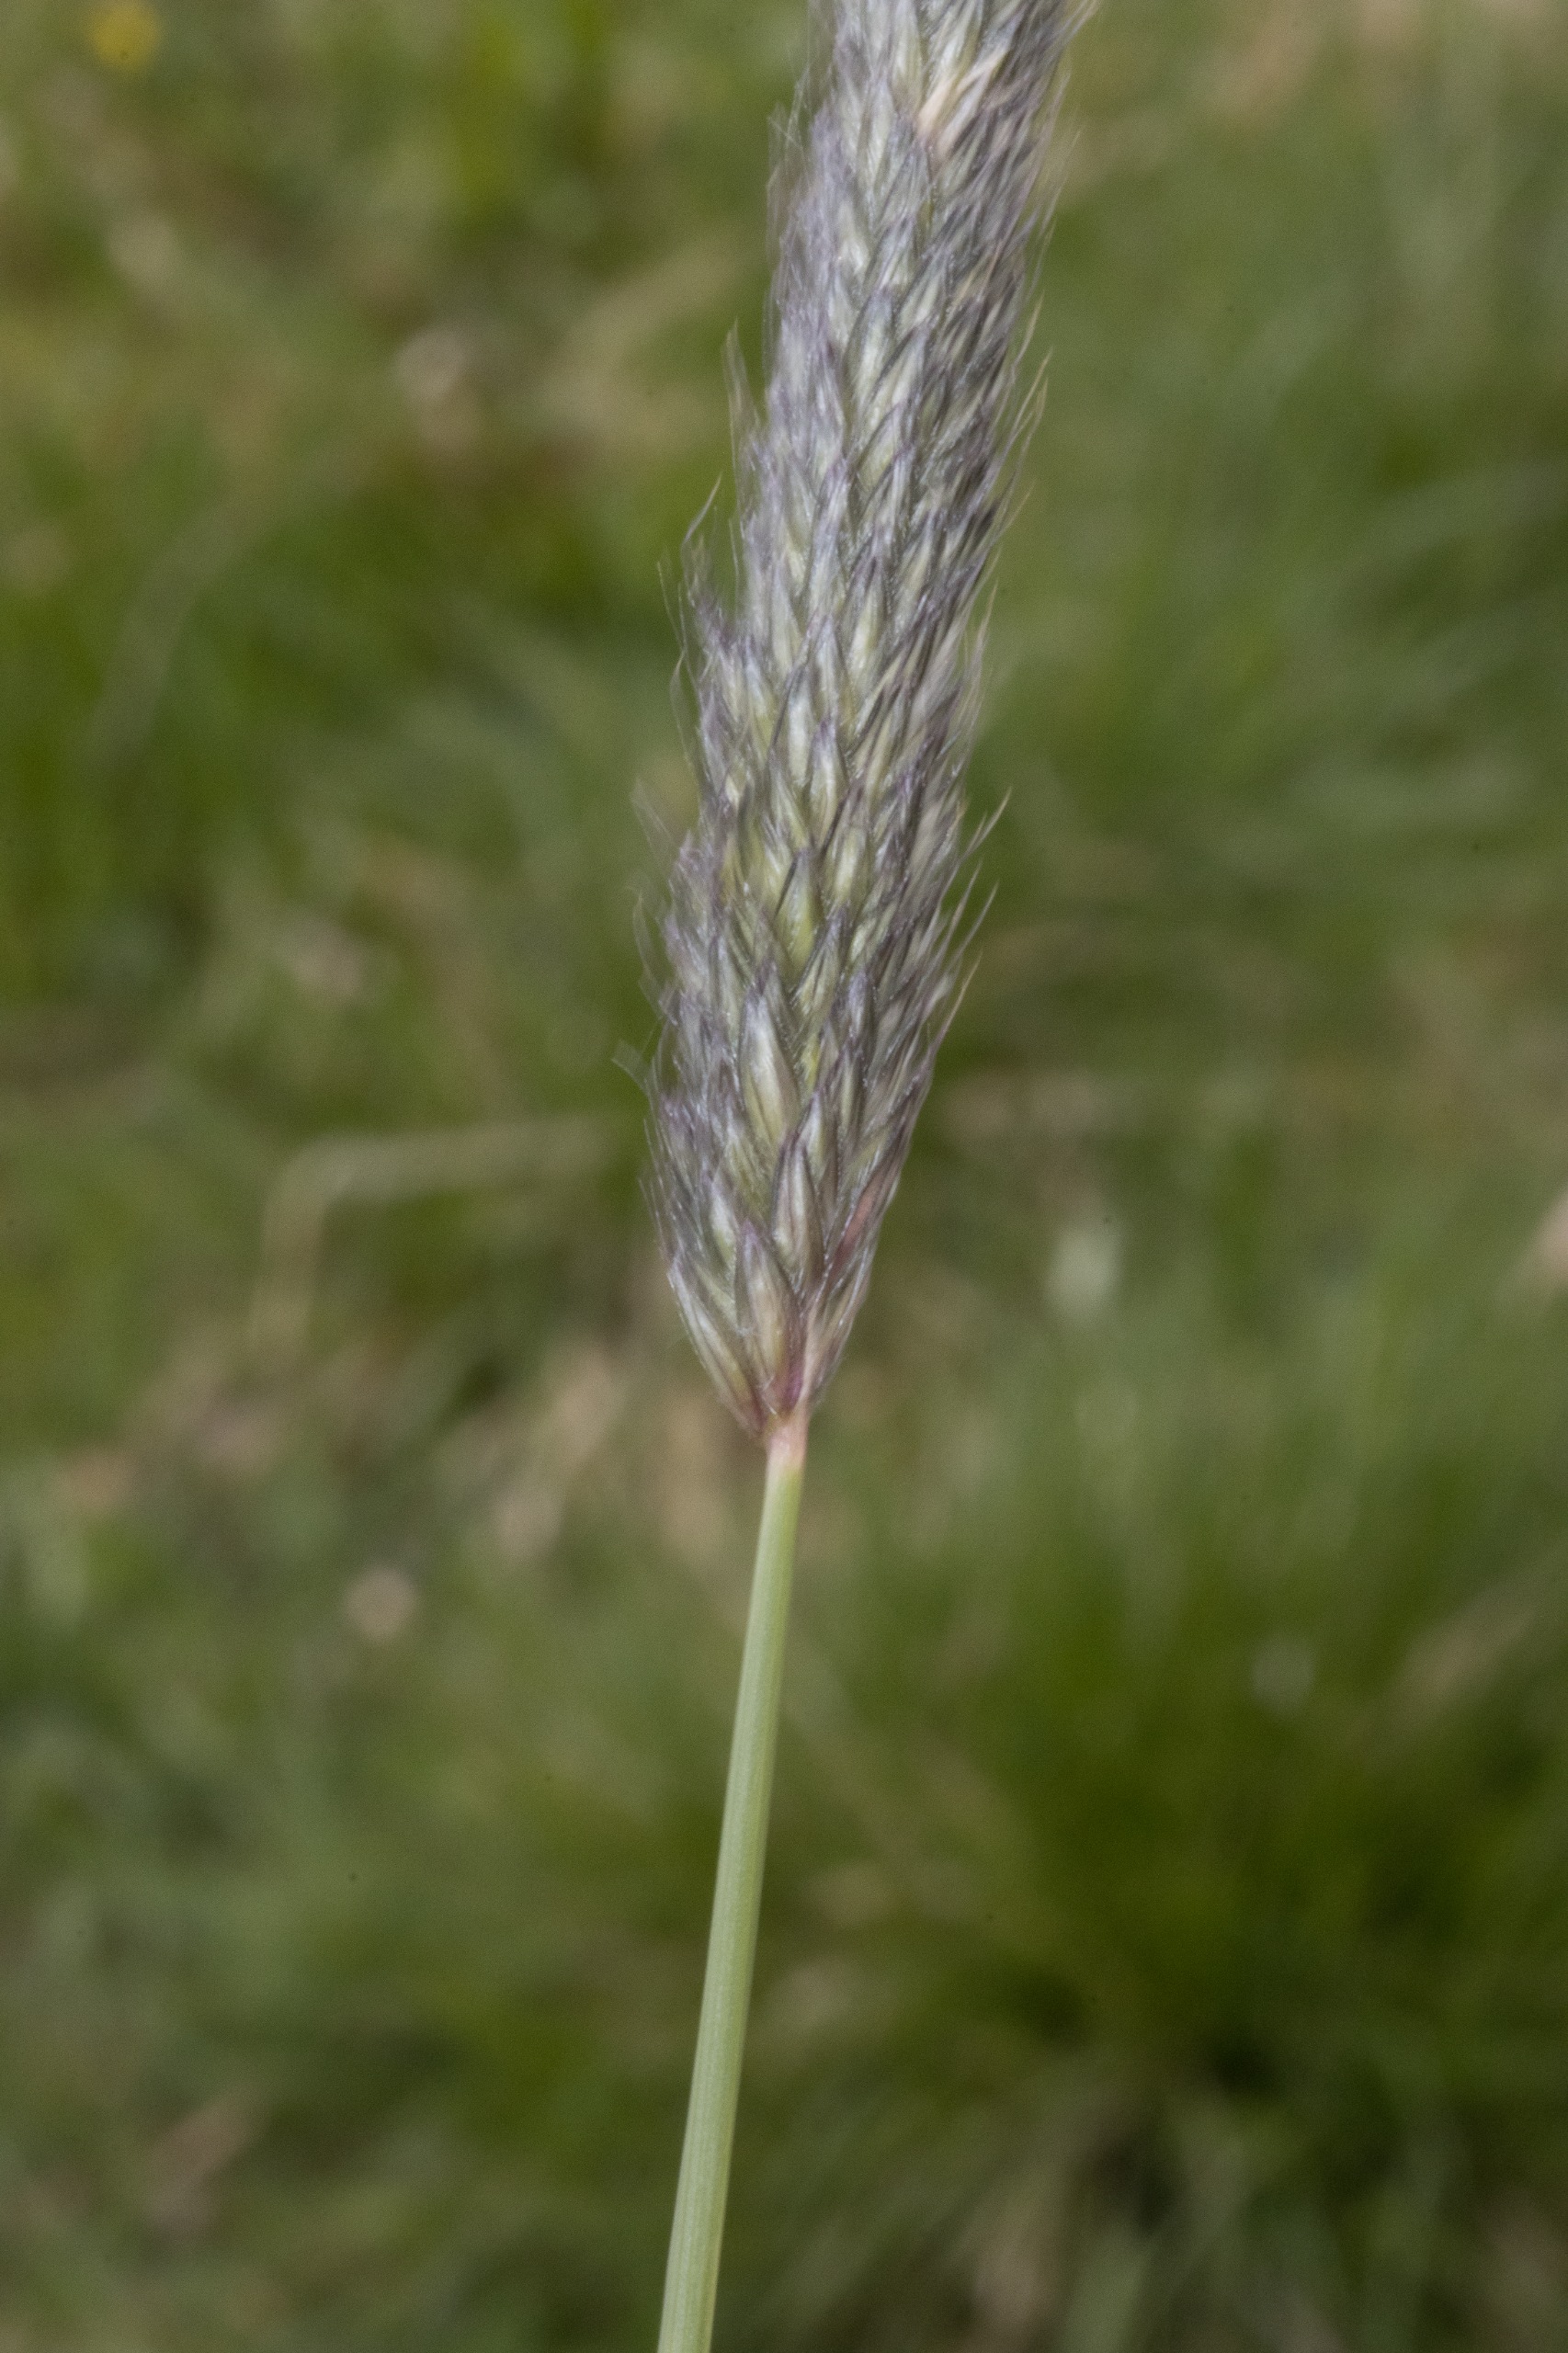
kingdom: Plantae
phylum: Tracheophyta
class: Liliopsida
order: Poales
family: Poaceae
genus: Alopecurus
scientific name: Alopecurus pratensis
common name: Eng-rævehale
